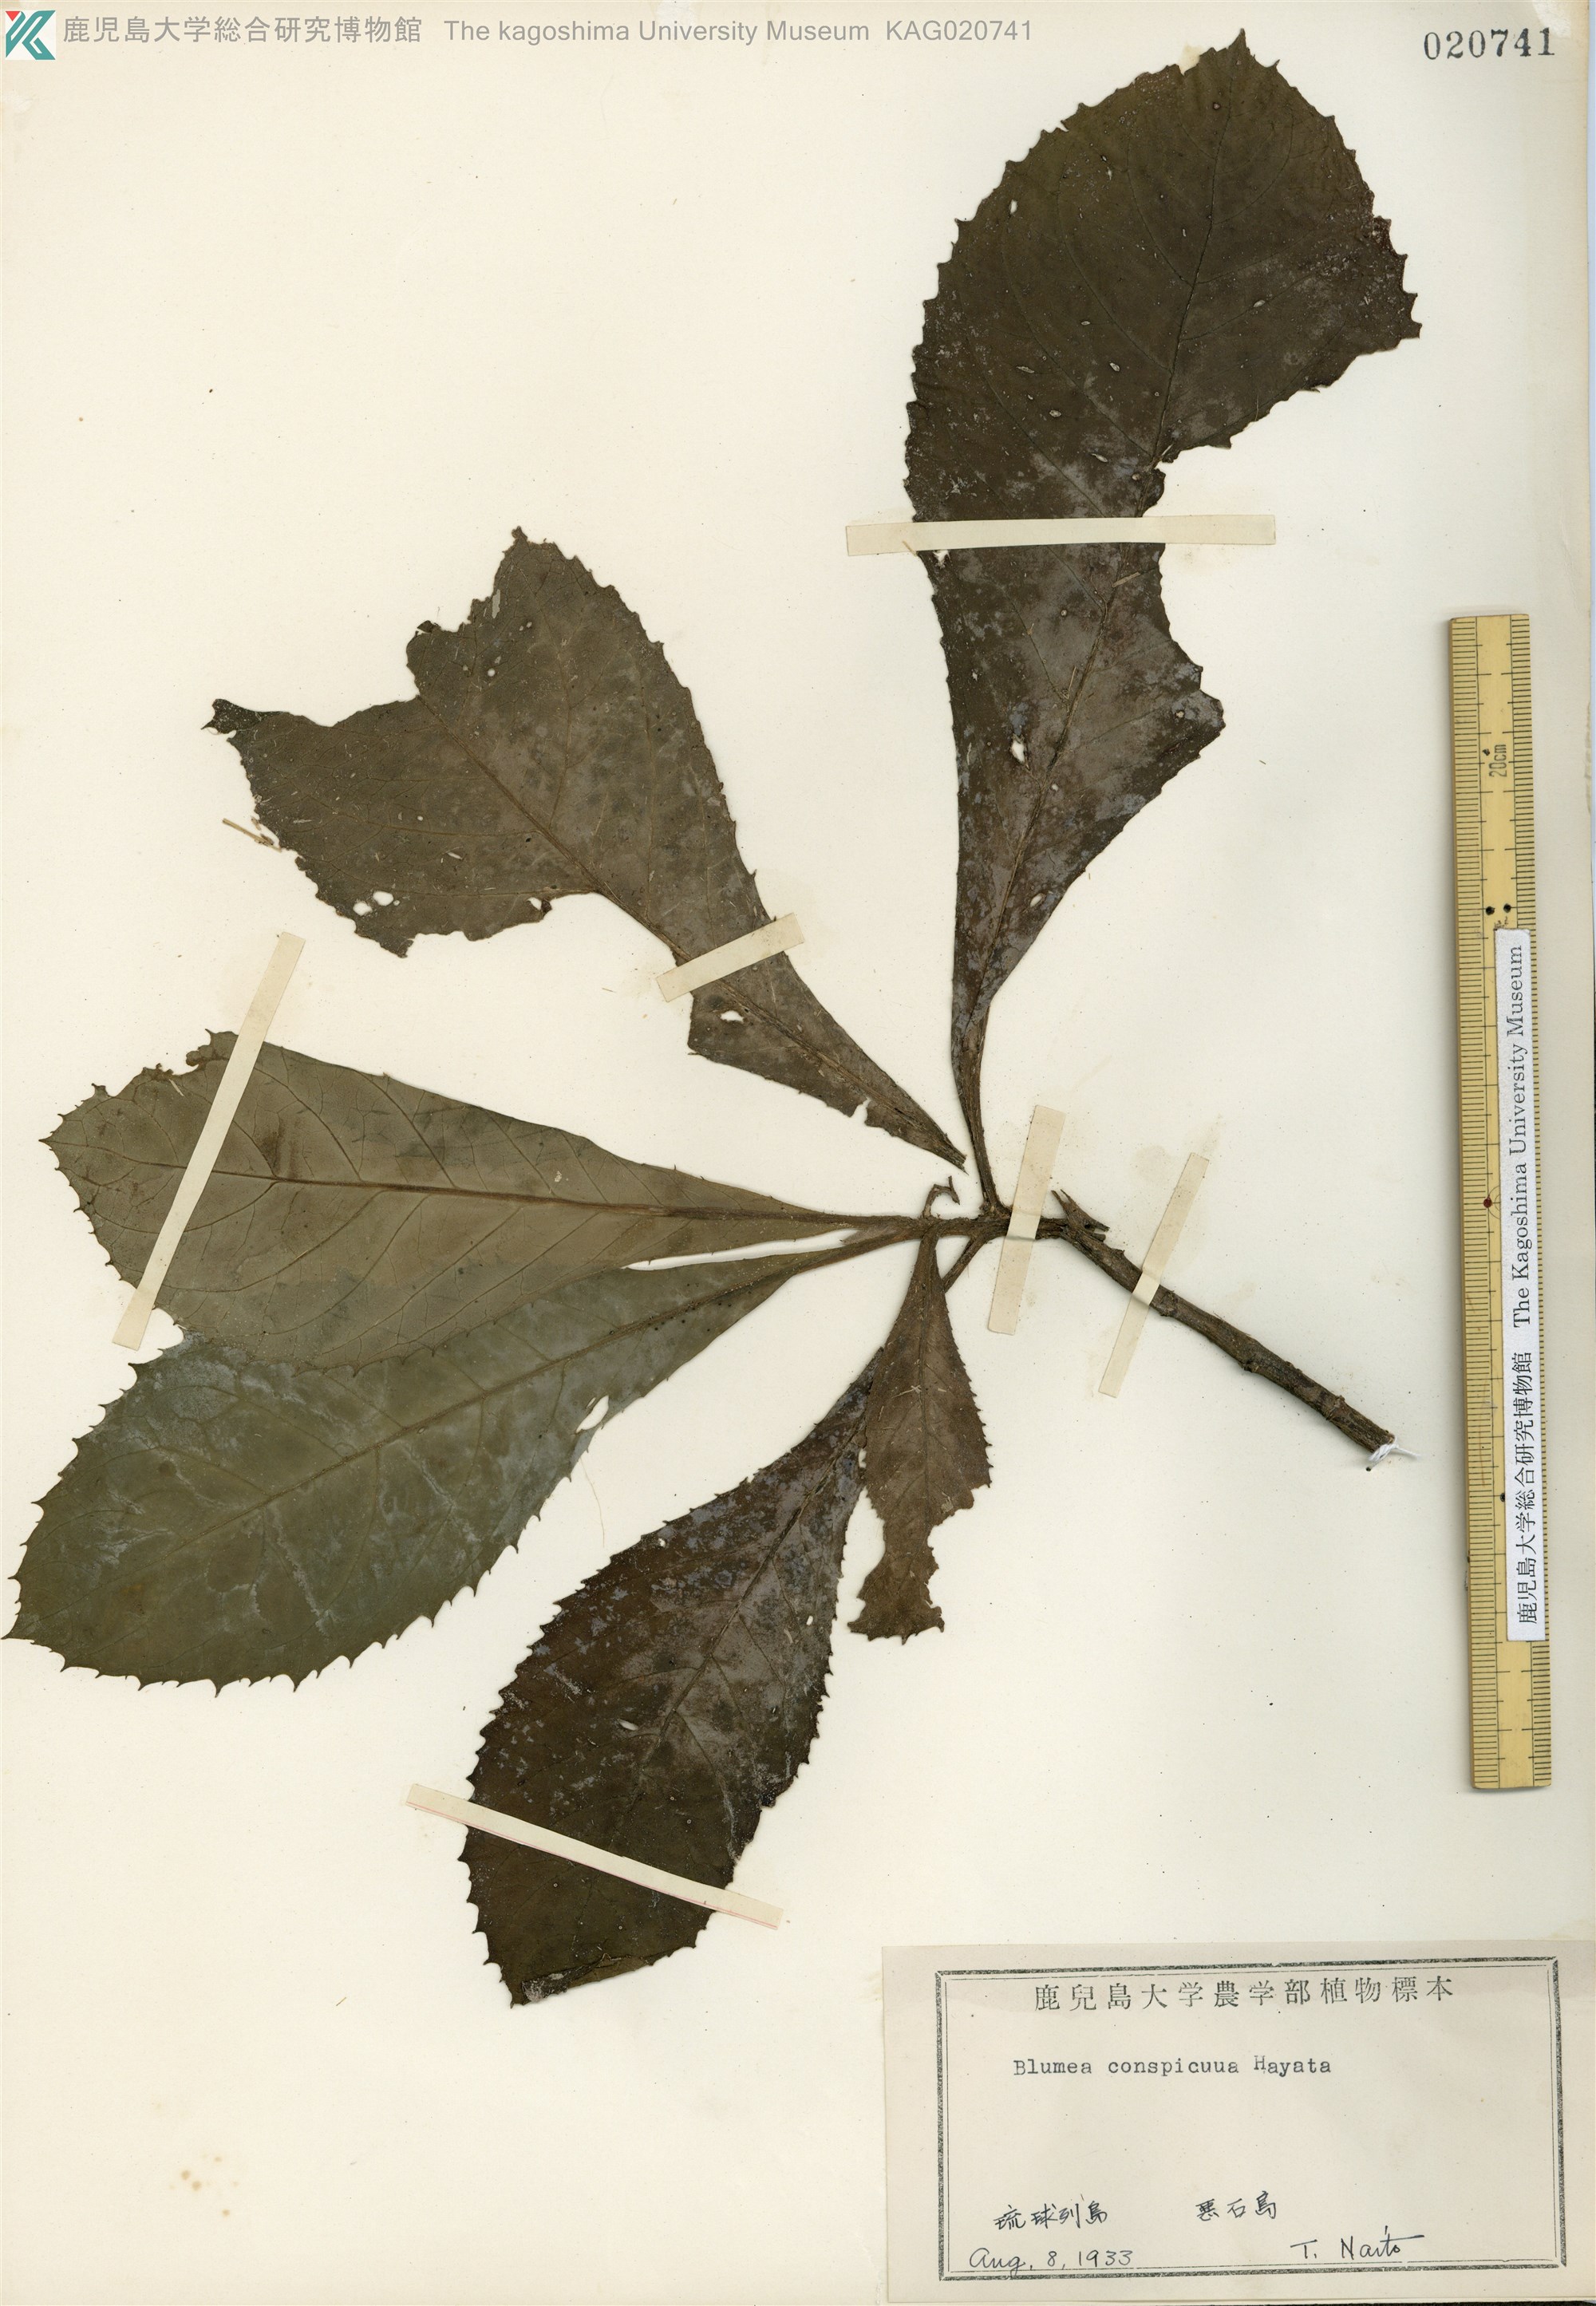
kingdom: Plantae
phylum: Tracheophyta
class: Magnoliopsida
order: Asterales
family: Asteraceae
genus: Blumea
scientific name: Blumea conspicua
